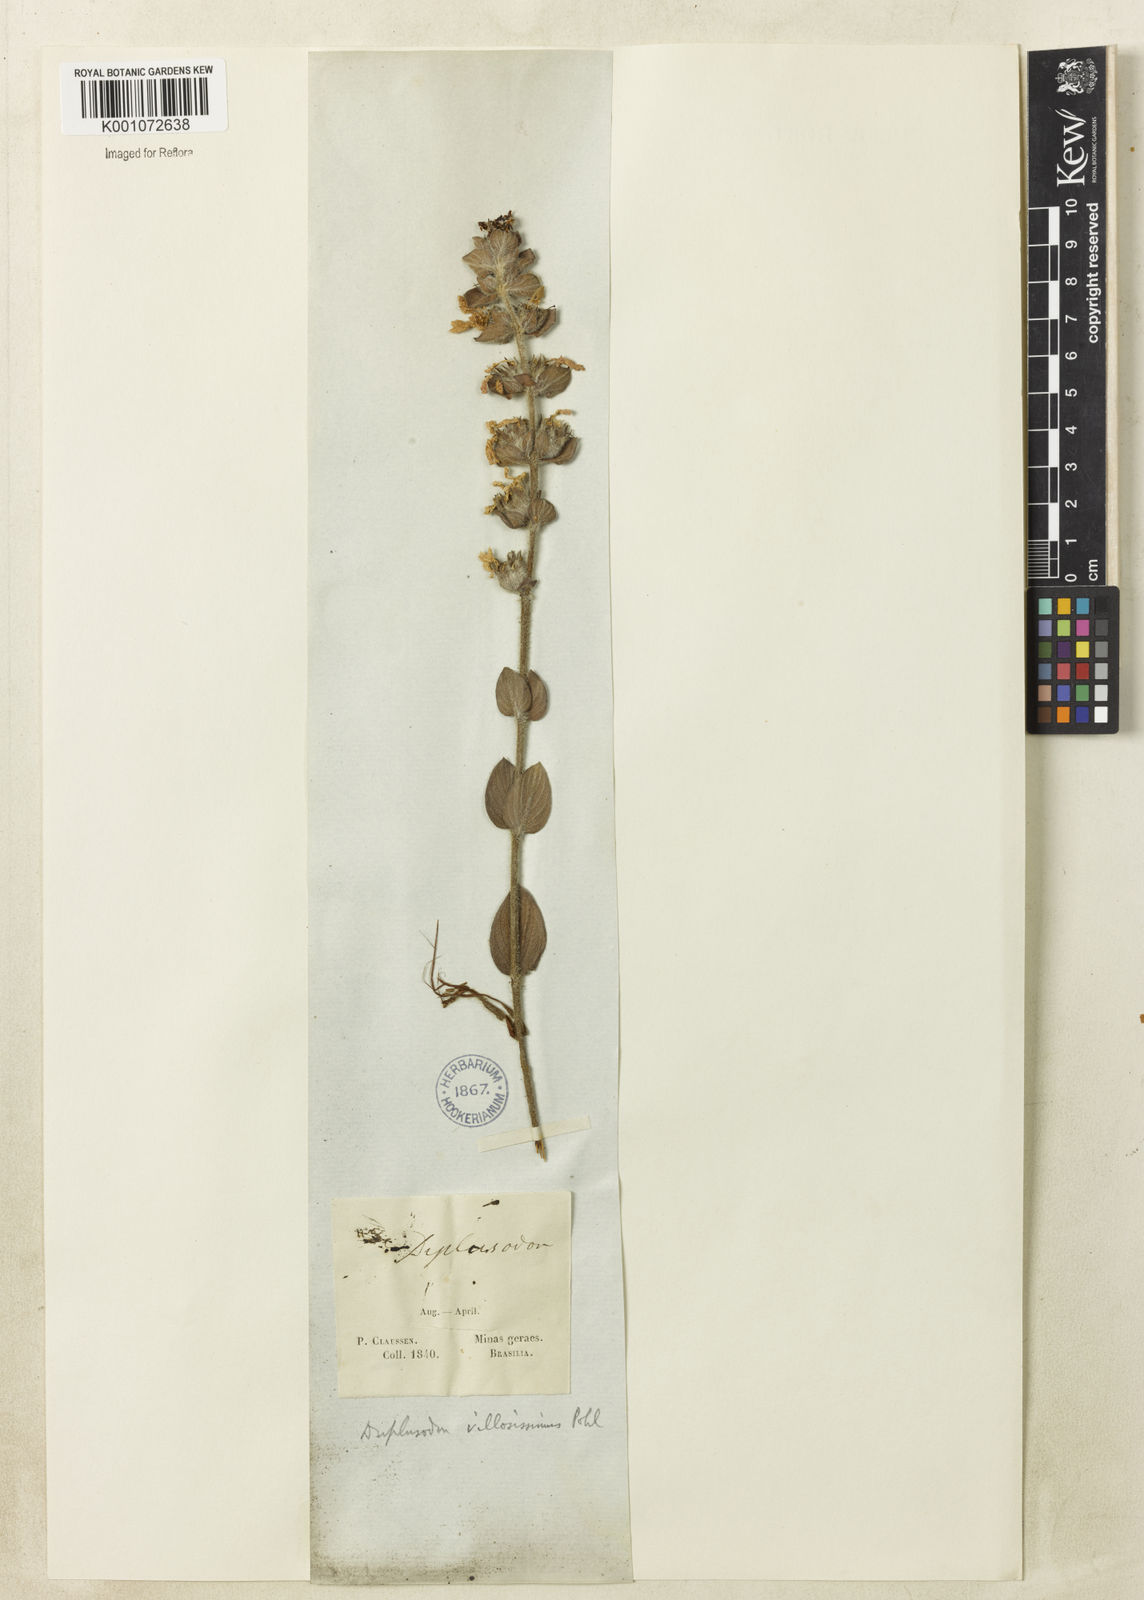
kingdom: Plantae
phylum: Tracheophyta
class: Magnoliopsida
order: Myrtales
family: Lythraceae
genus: Diplusodon
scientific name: Diplusodon villosissimus
